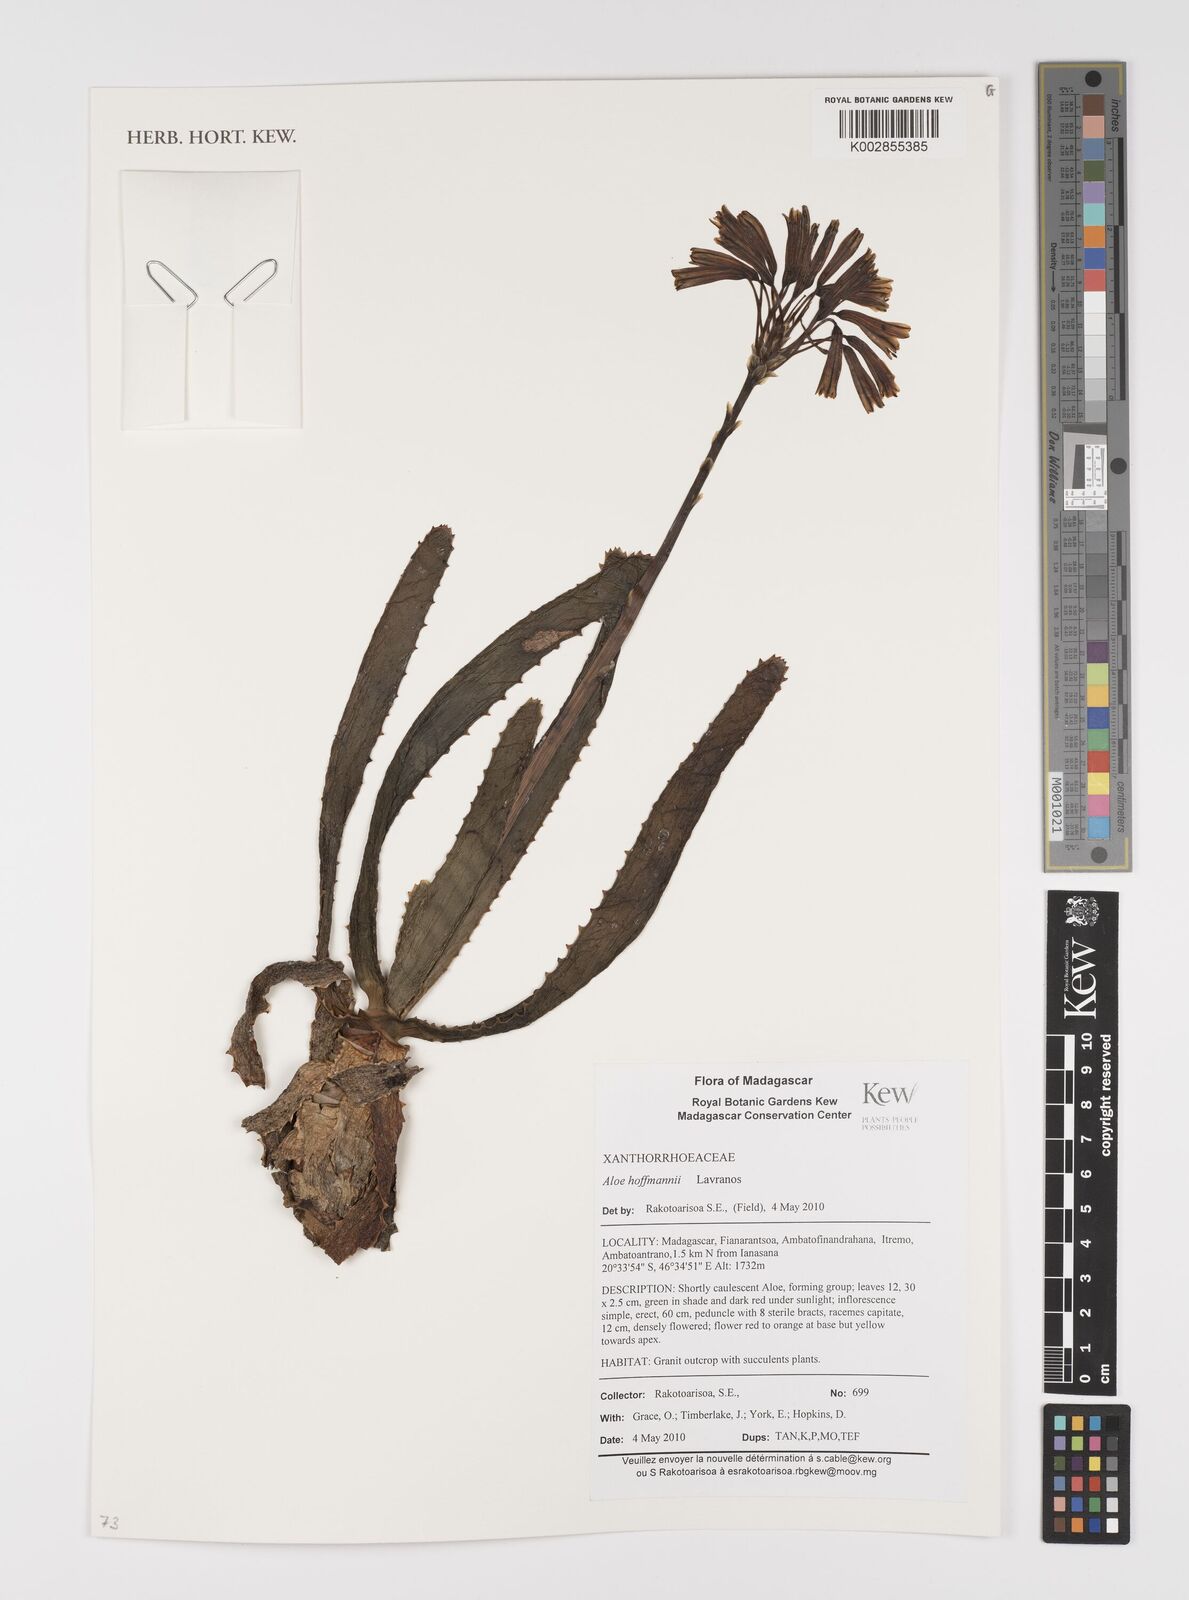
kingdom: Plantae
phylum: Tracheophyta
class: Liliopsida
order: Asparagales
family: Asphodelaceae
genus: Aloe
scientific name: Aloe hoffmannii
